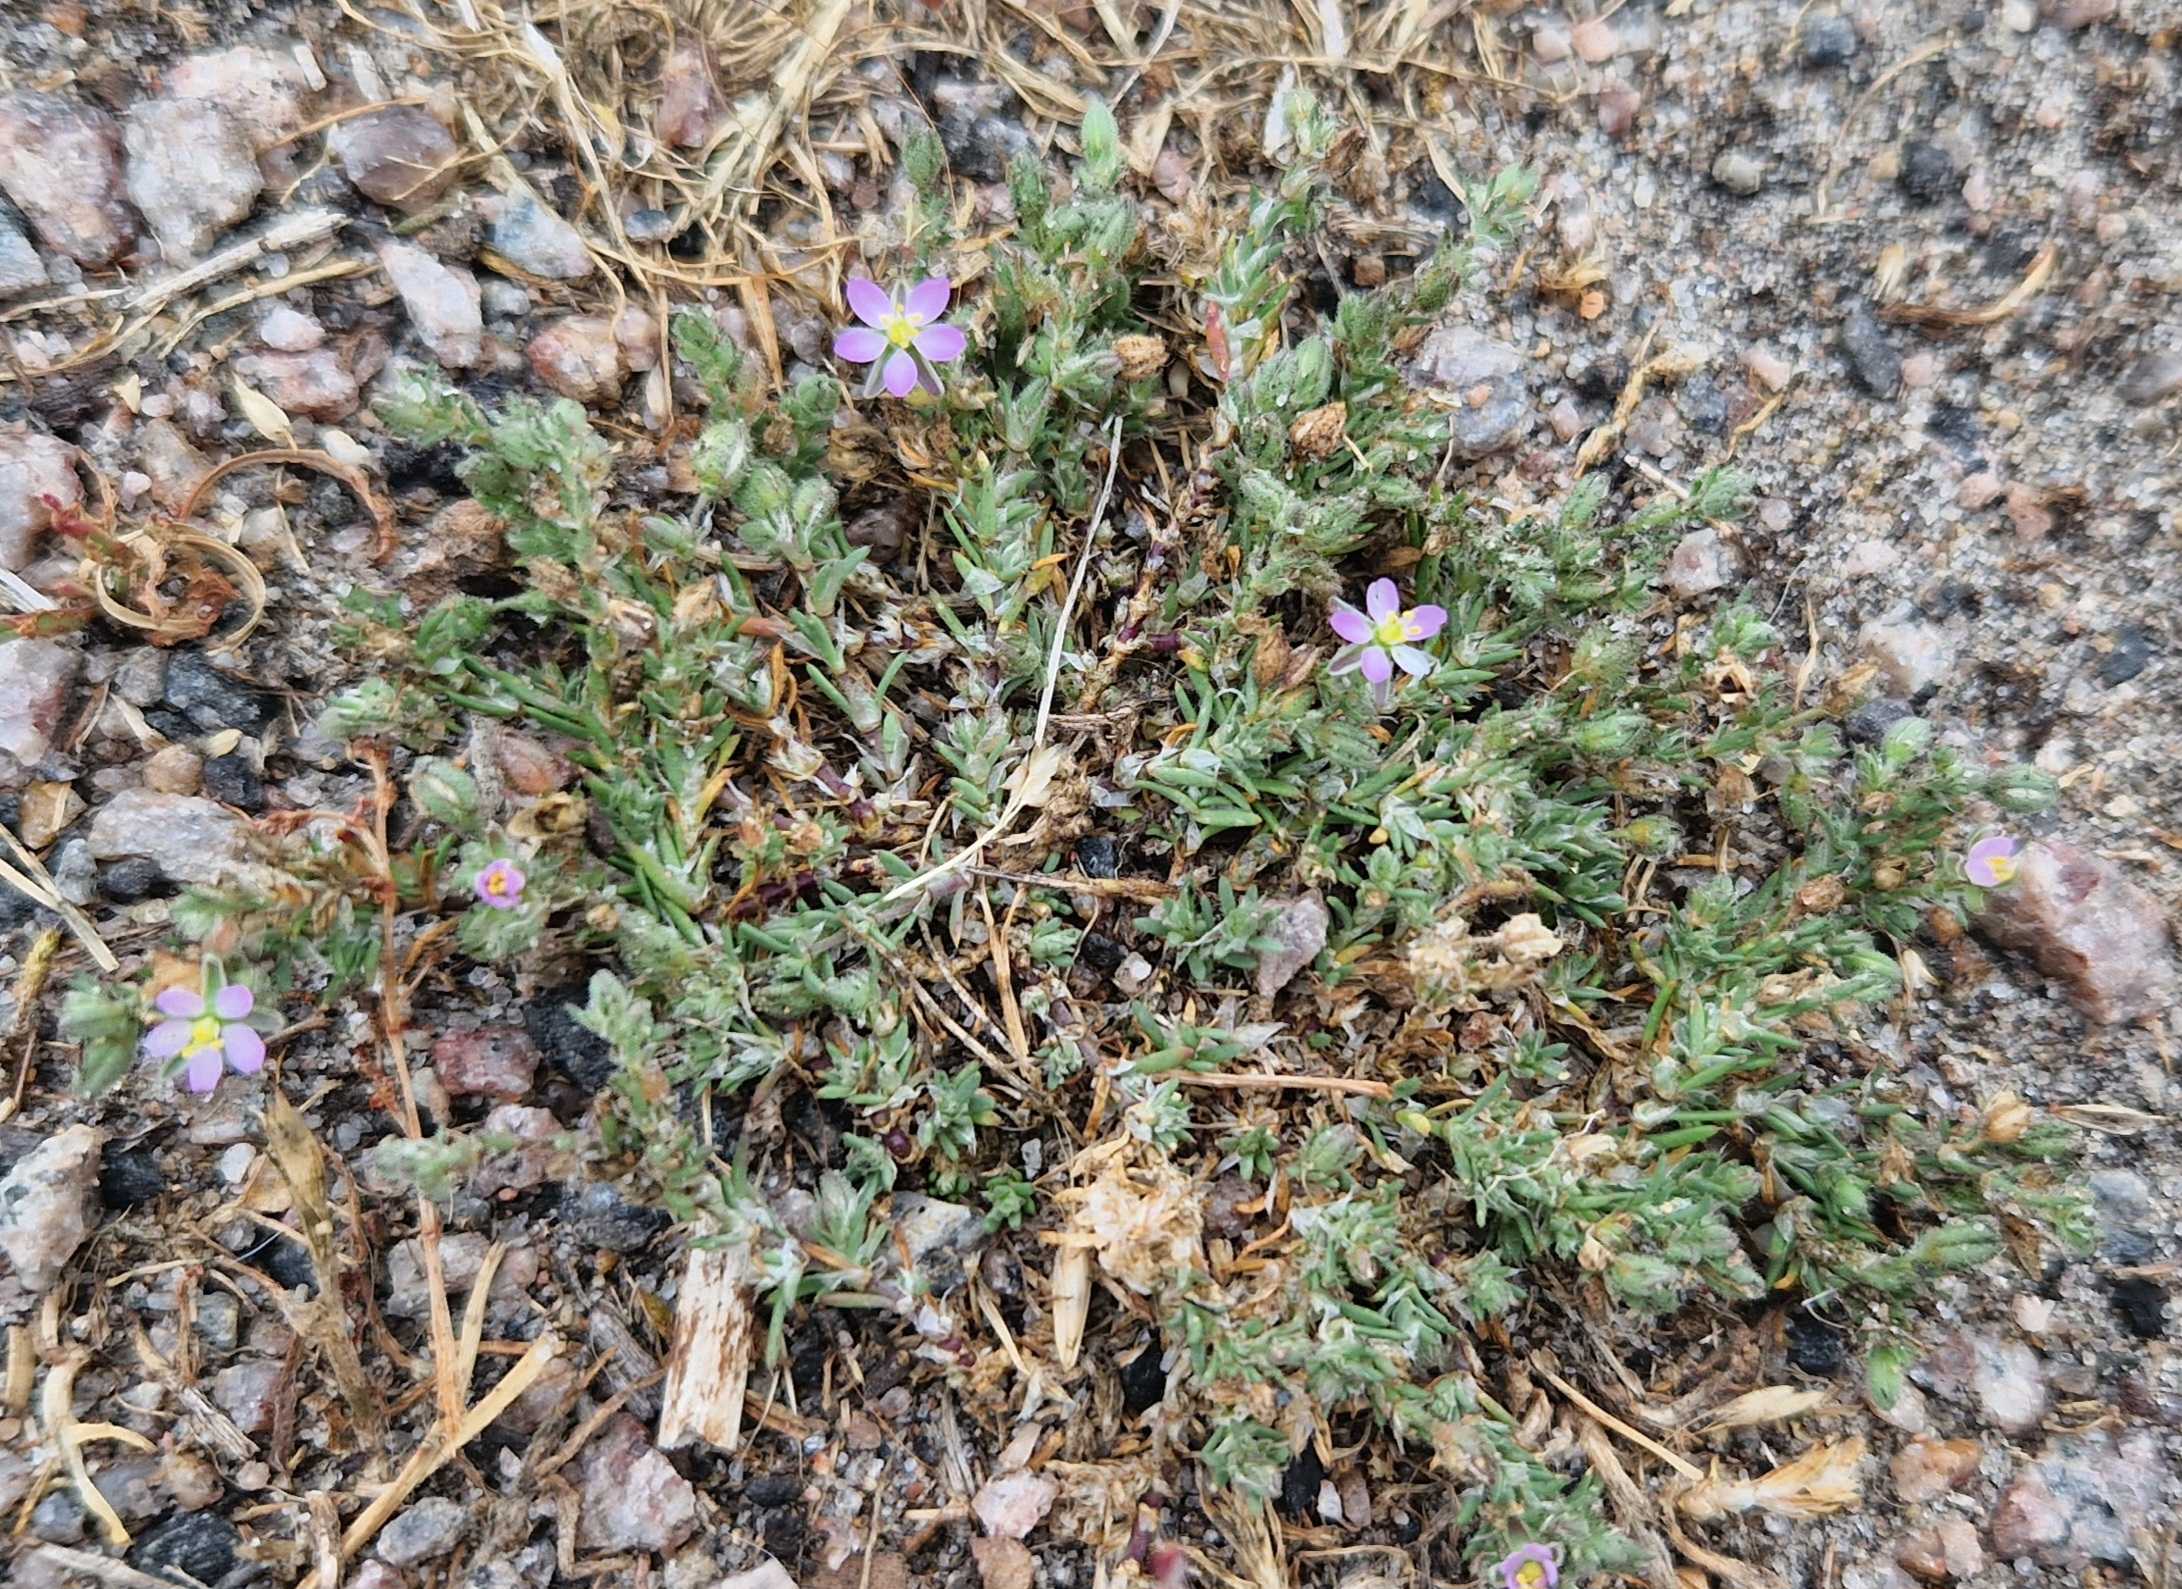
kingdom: Plantae
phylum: Tracheophyta
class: Magnoliopsida
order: Caryophyllales
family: Caryophyllaceae
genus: Spergularia
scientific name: Spergularia rubra
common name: Mark-hindeknæ
